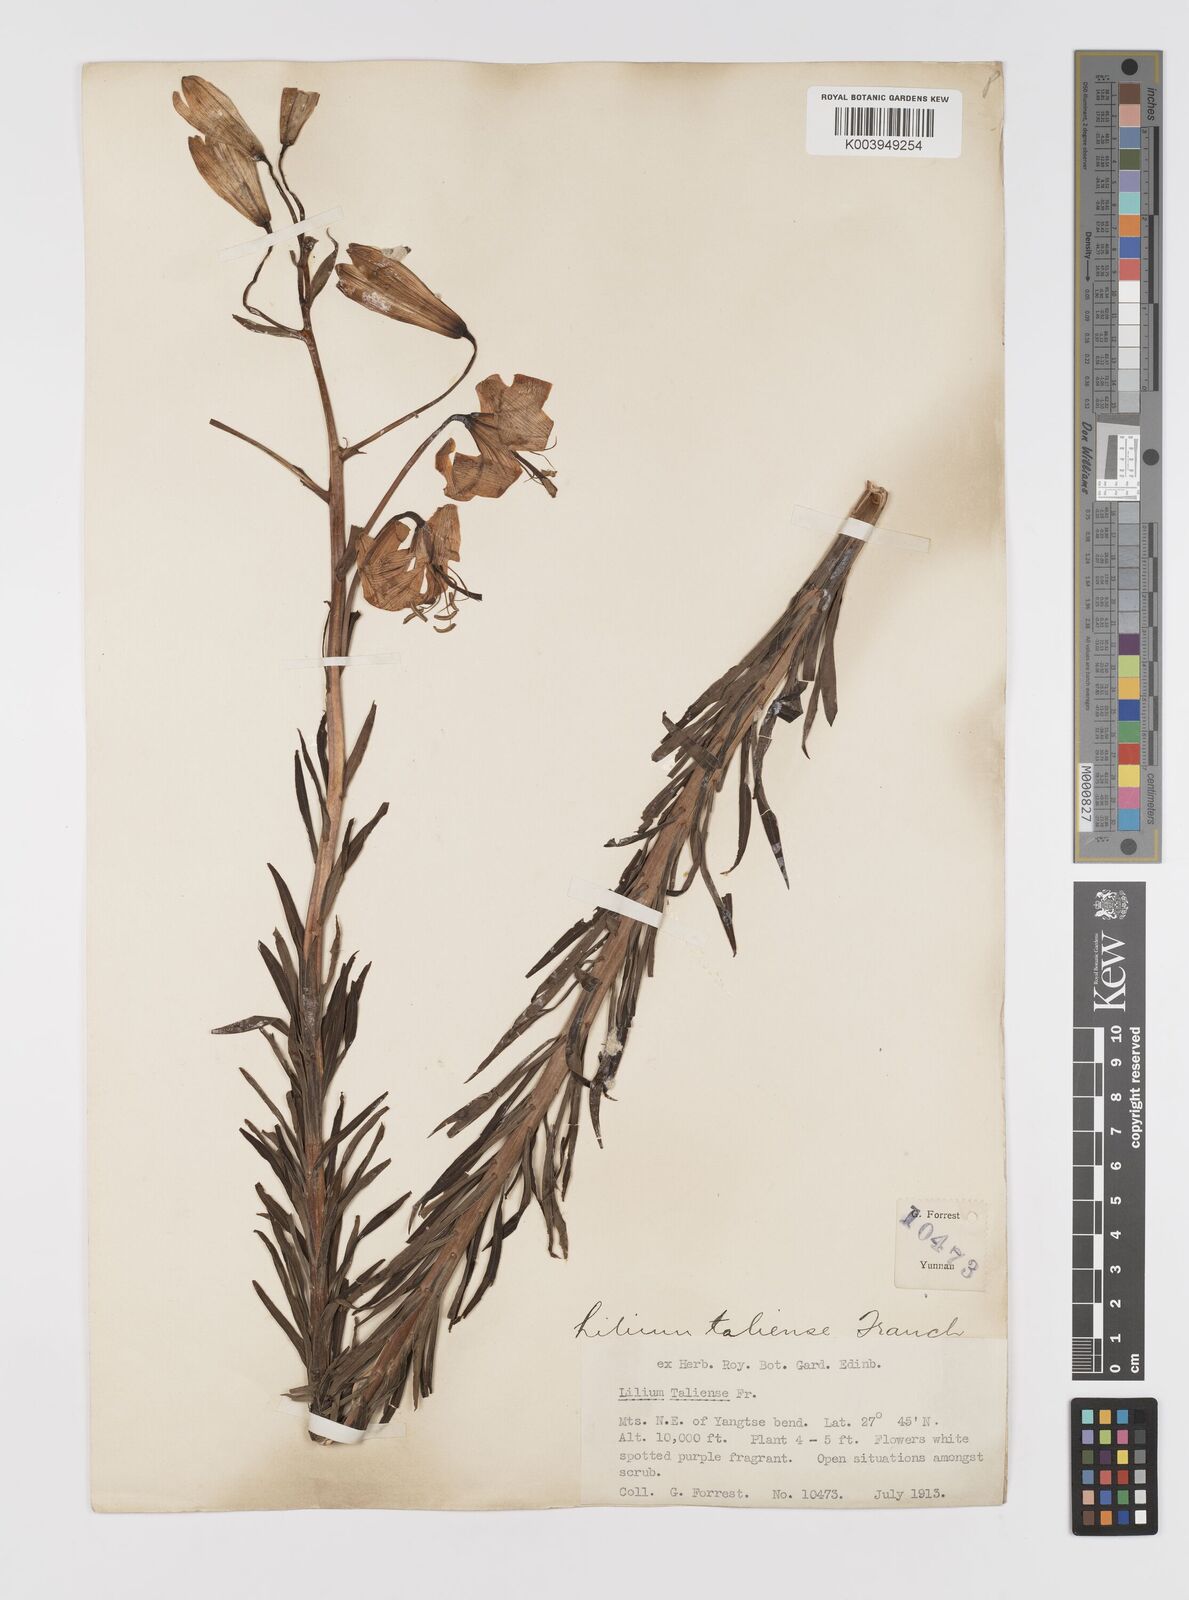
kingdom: Plantae
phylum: Tracheophyta
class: Liliopsida
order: Liliales
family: Liliaceae
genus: Lilium
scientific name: Lilium taliense
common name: Tali lily
